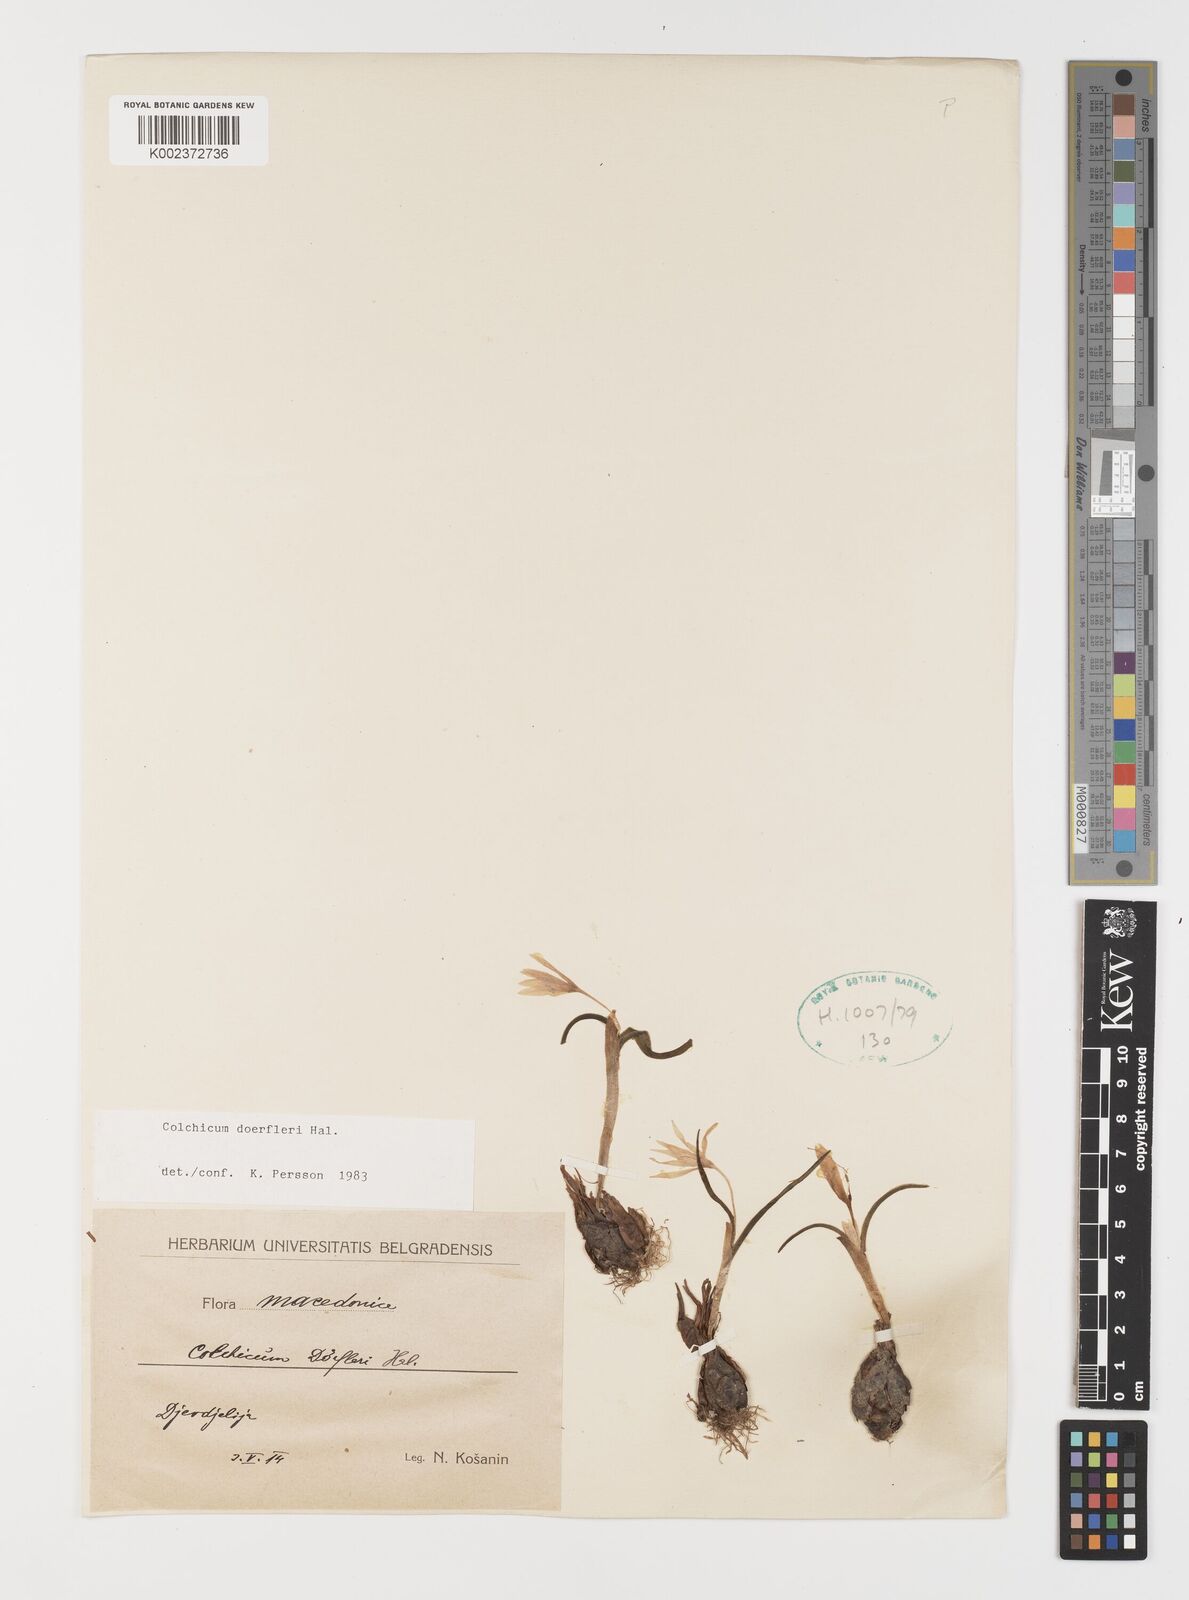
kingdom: Plantae
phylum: Tracheophyta
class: Liliopsida
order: Liliales
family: Colchicaceae
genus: Colchicum
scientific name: Colchicum doerfleri
